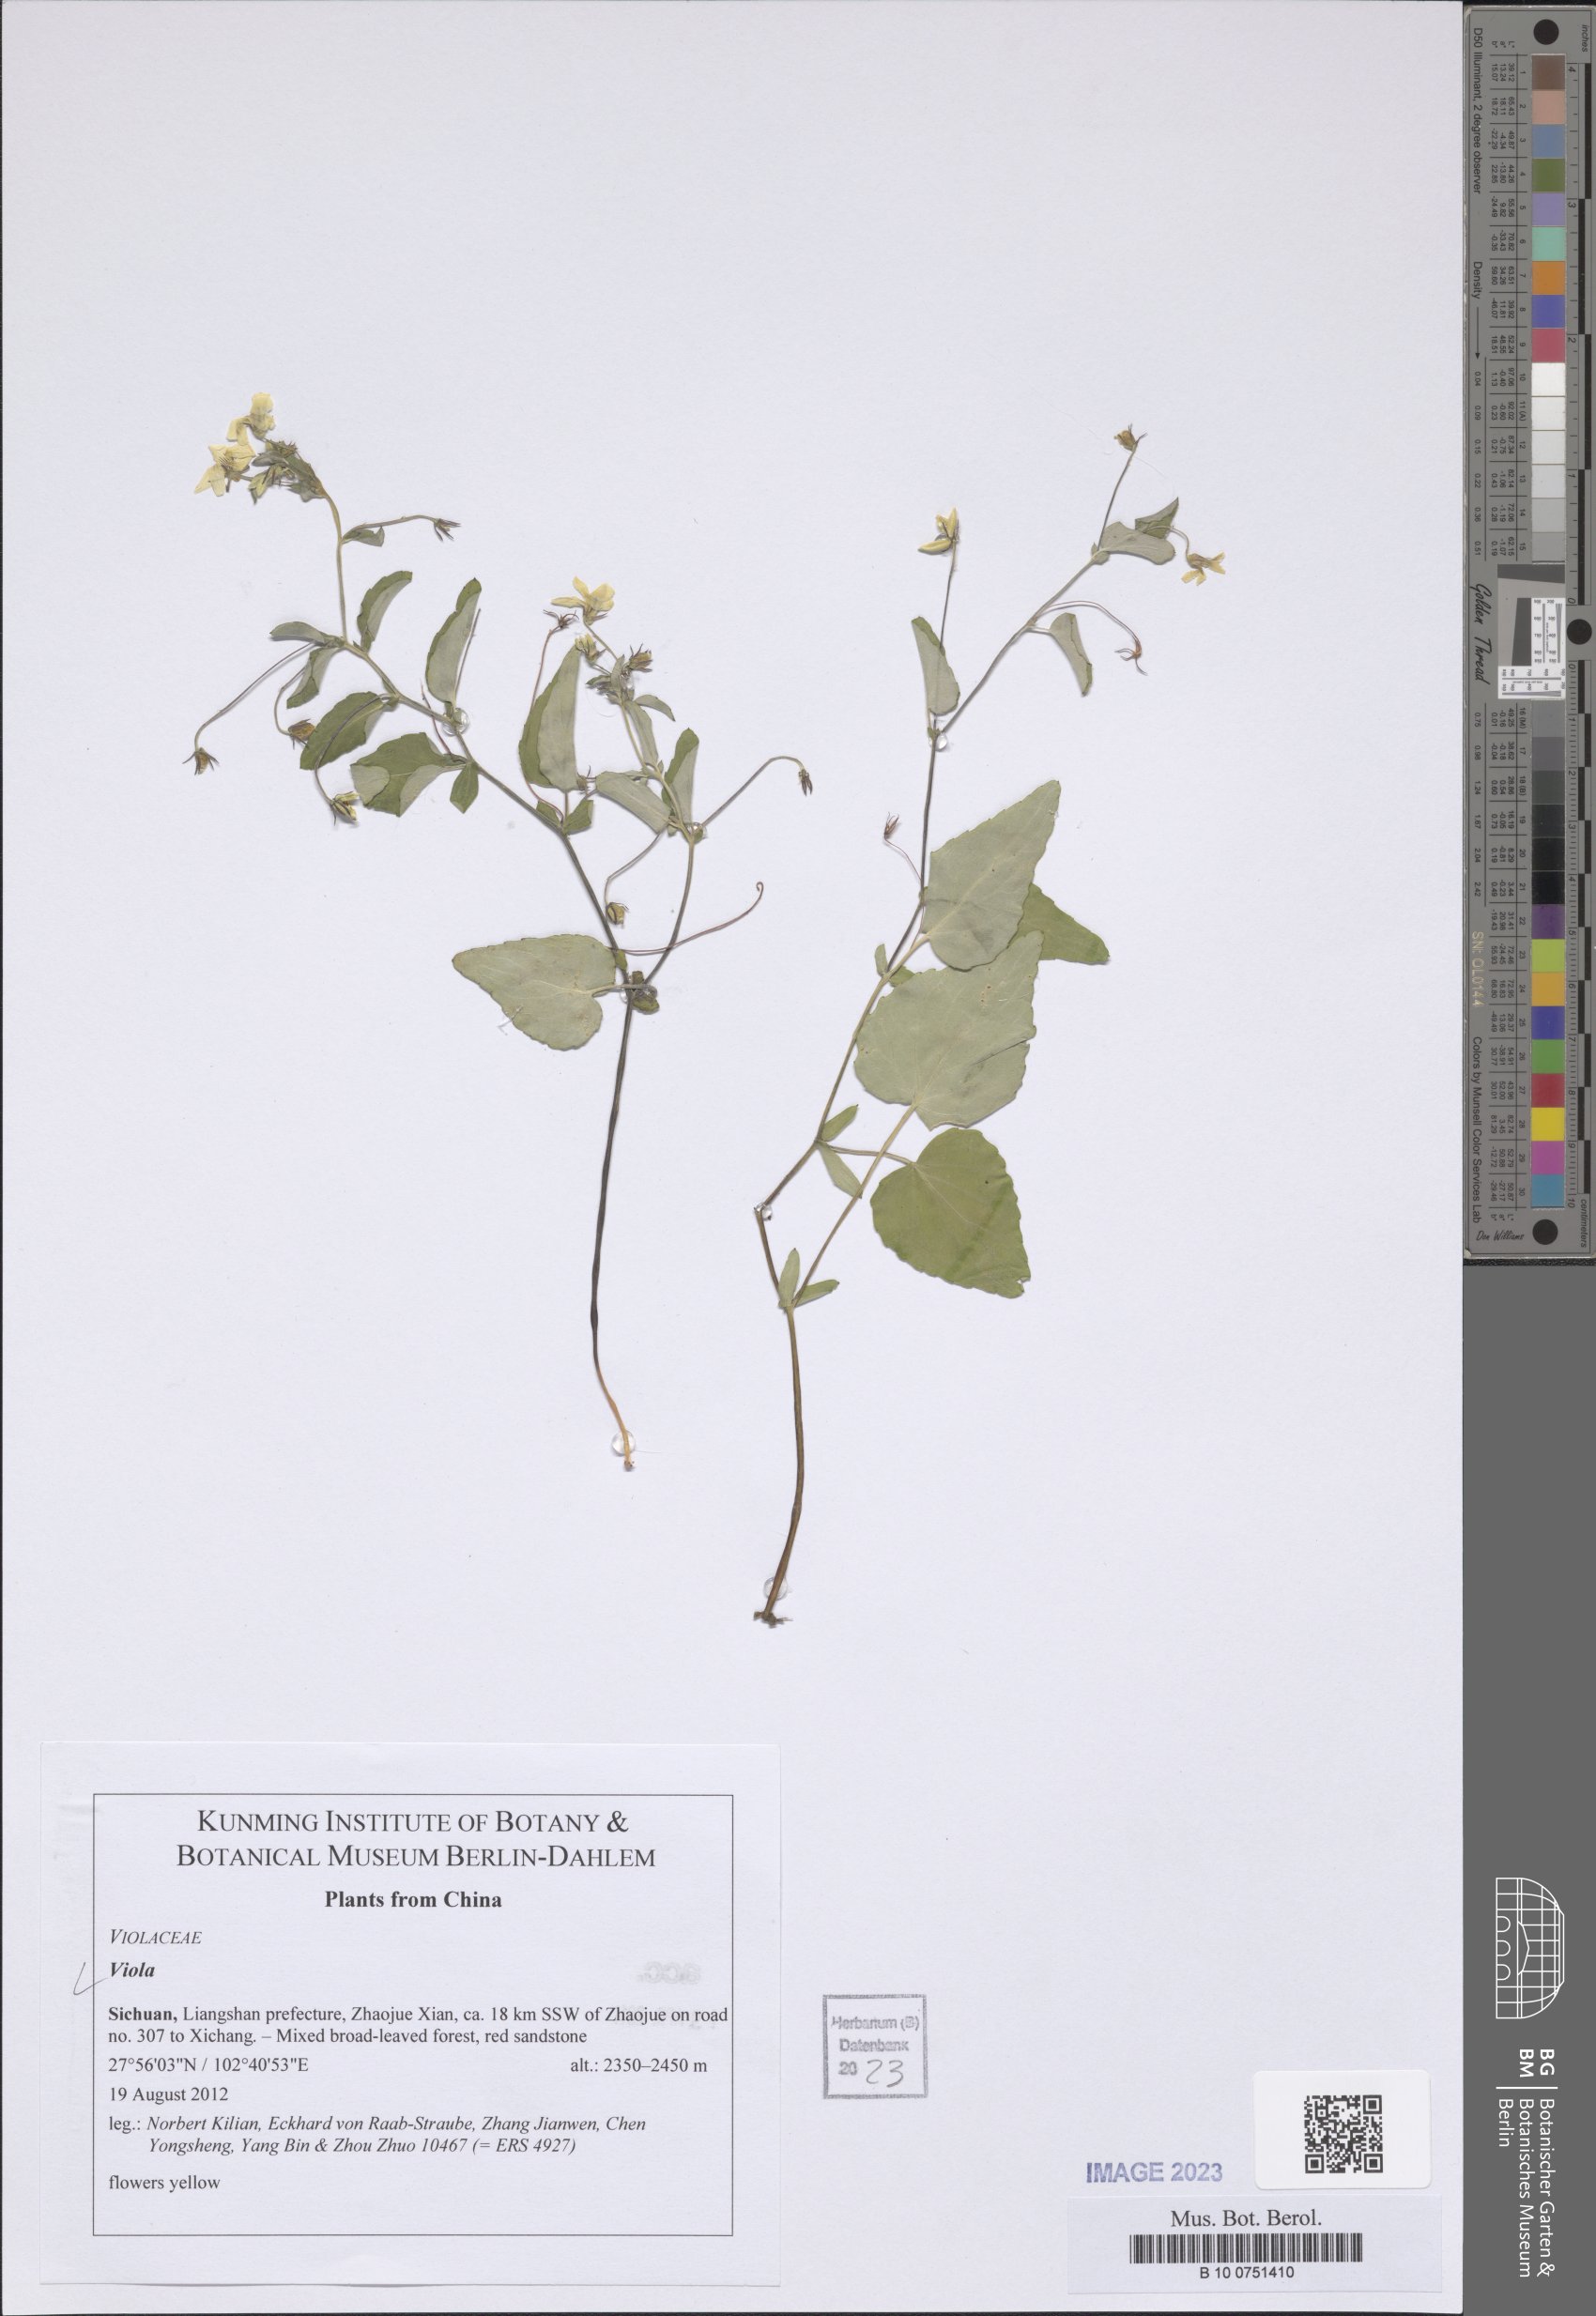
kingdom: Plantae
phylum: Tracheophyta
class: Magnoliopsida
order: Malpighiales
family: Violaceae
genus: Viola
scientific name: Viola
